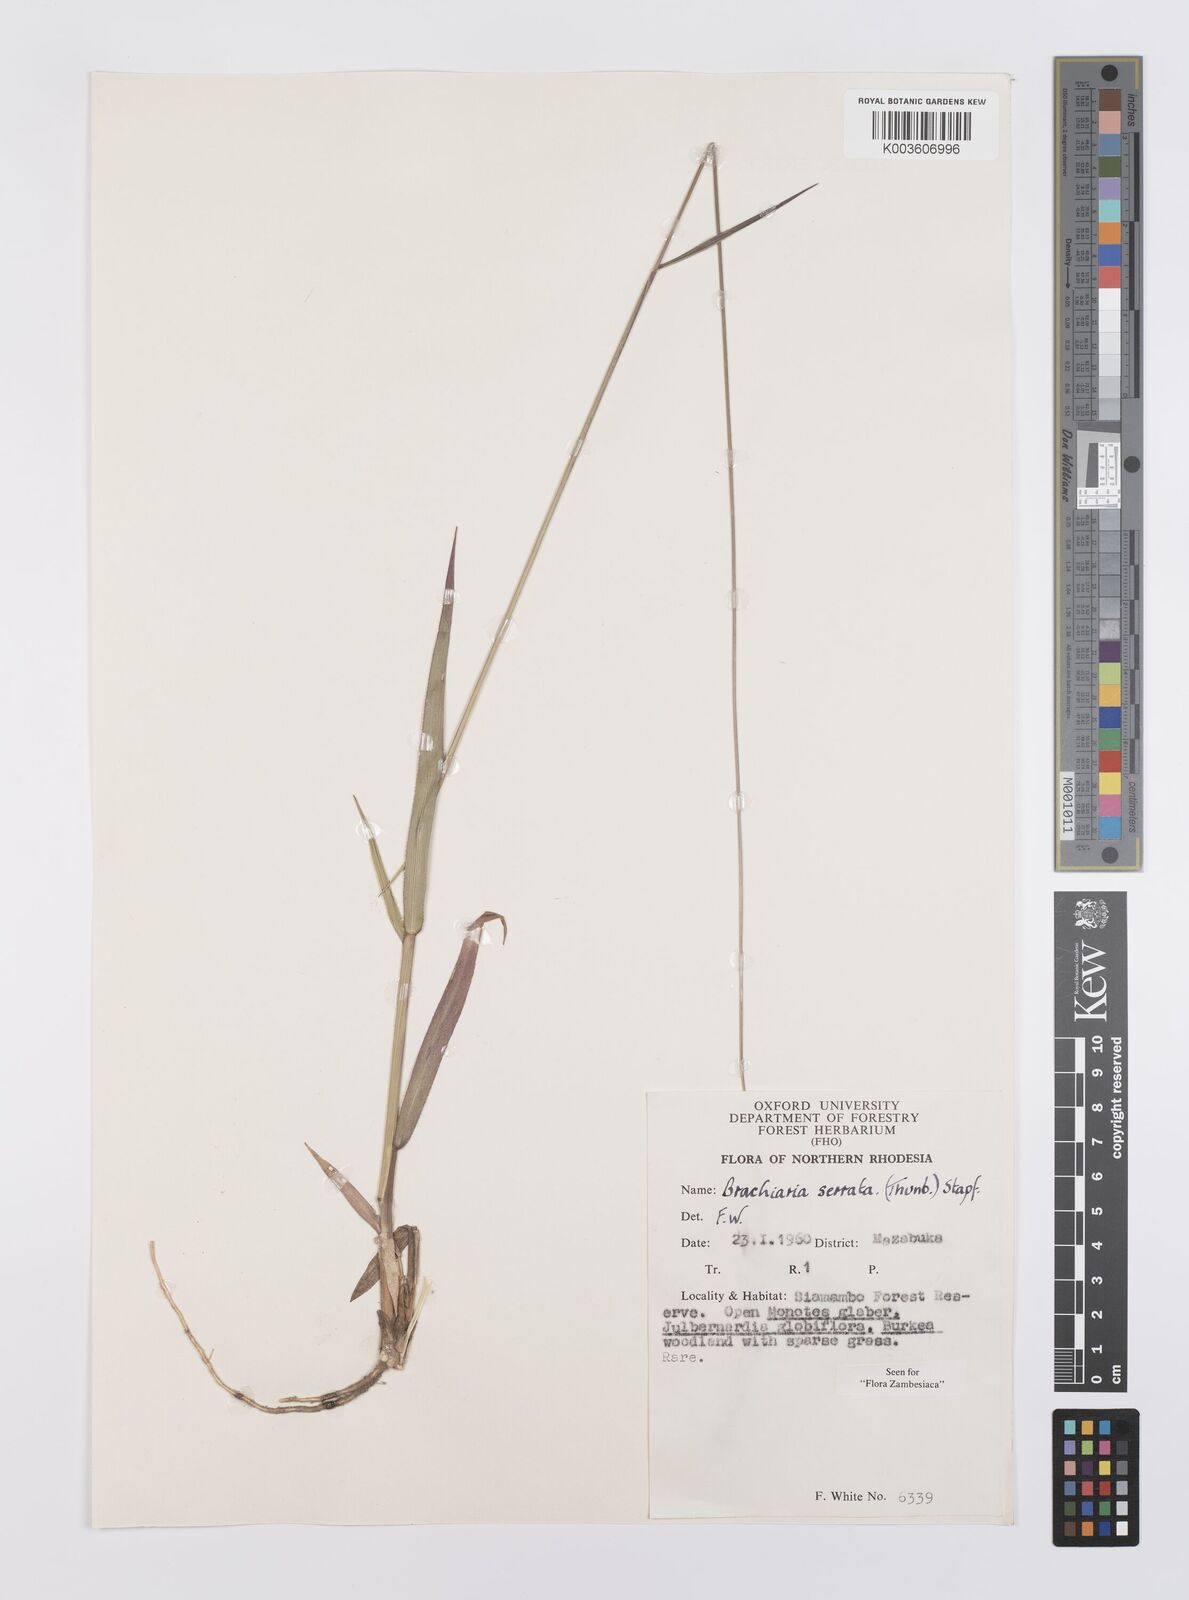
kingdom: Plantae
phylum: Tracheophyta
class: Liliopsida
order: Poales
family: Poaceae
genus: Urochloa
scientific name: Urochloa serrata
